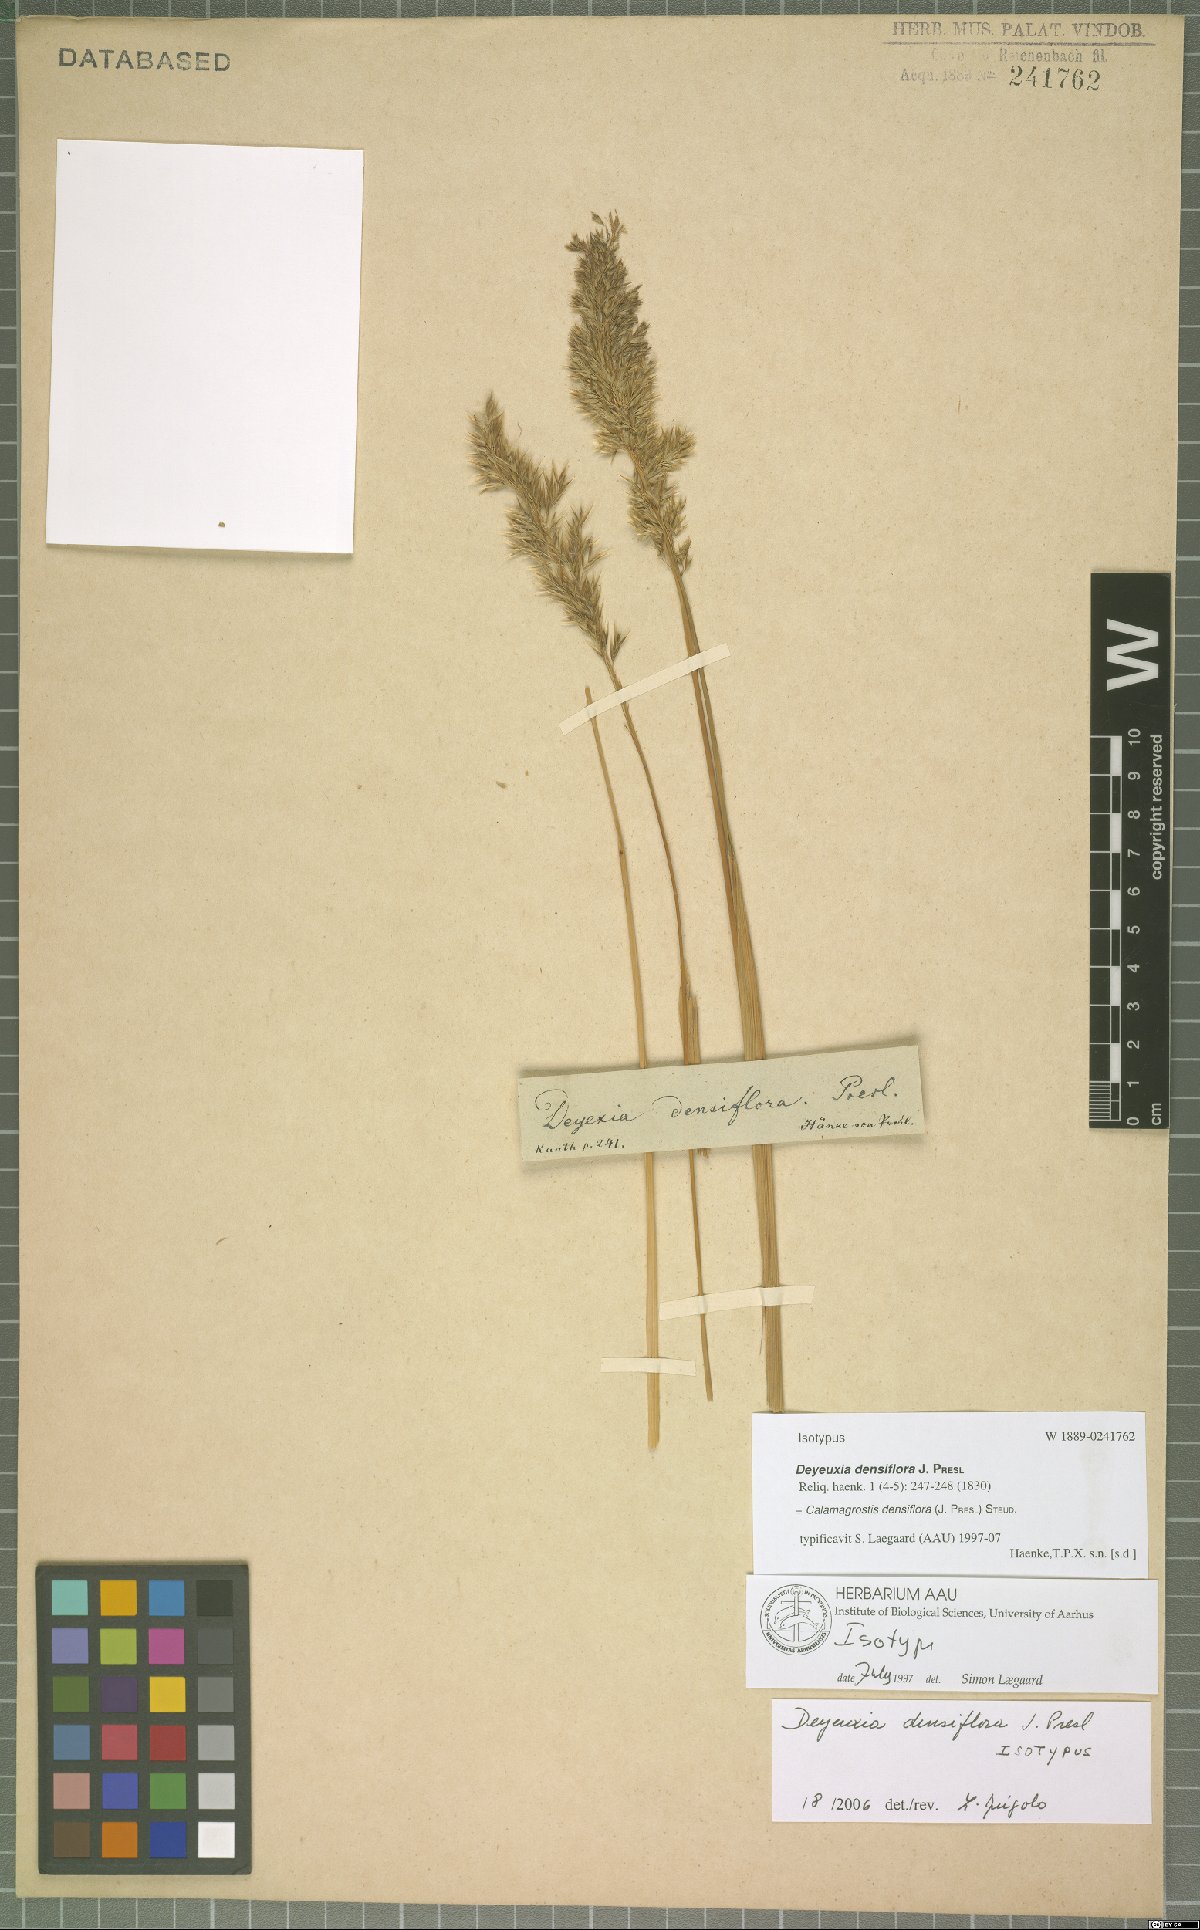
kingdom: Plantae
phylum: Tracheophyta
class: Liliopsida
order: Poales
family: Poaceae
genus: Cinnagrostis
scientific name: Cinnagrostis densiflora
